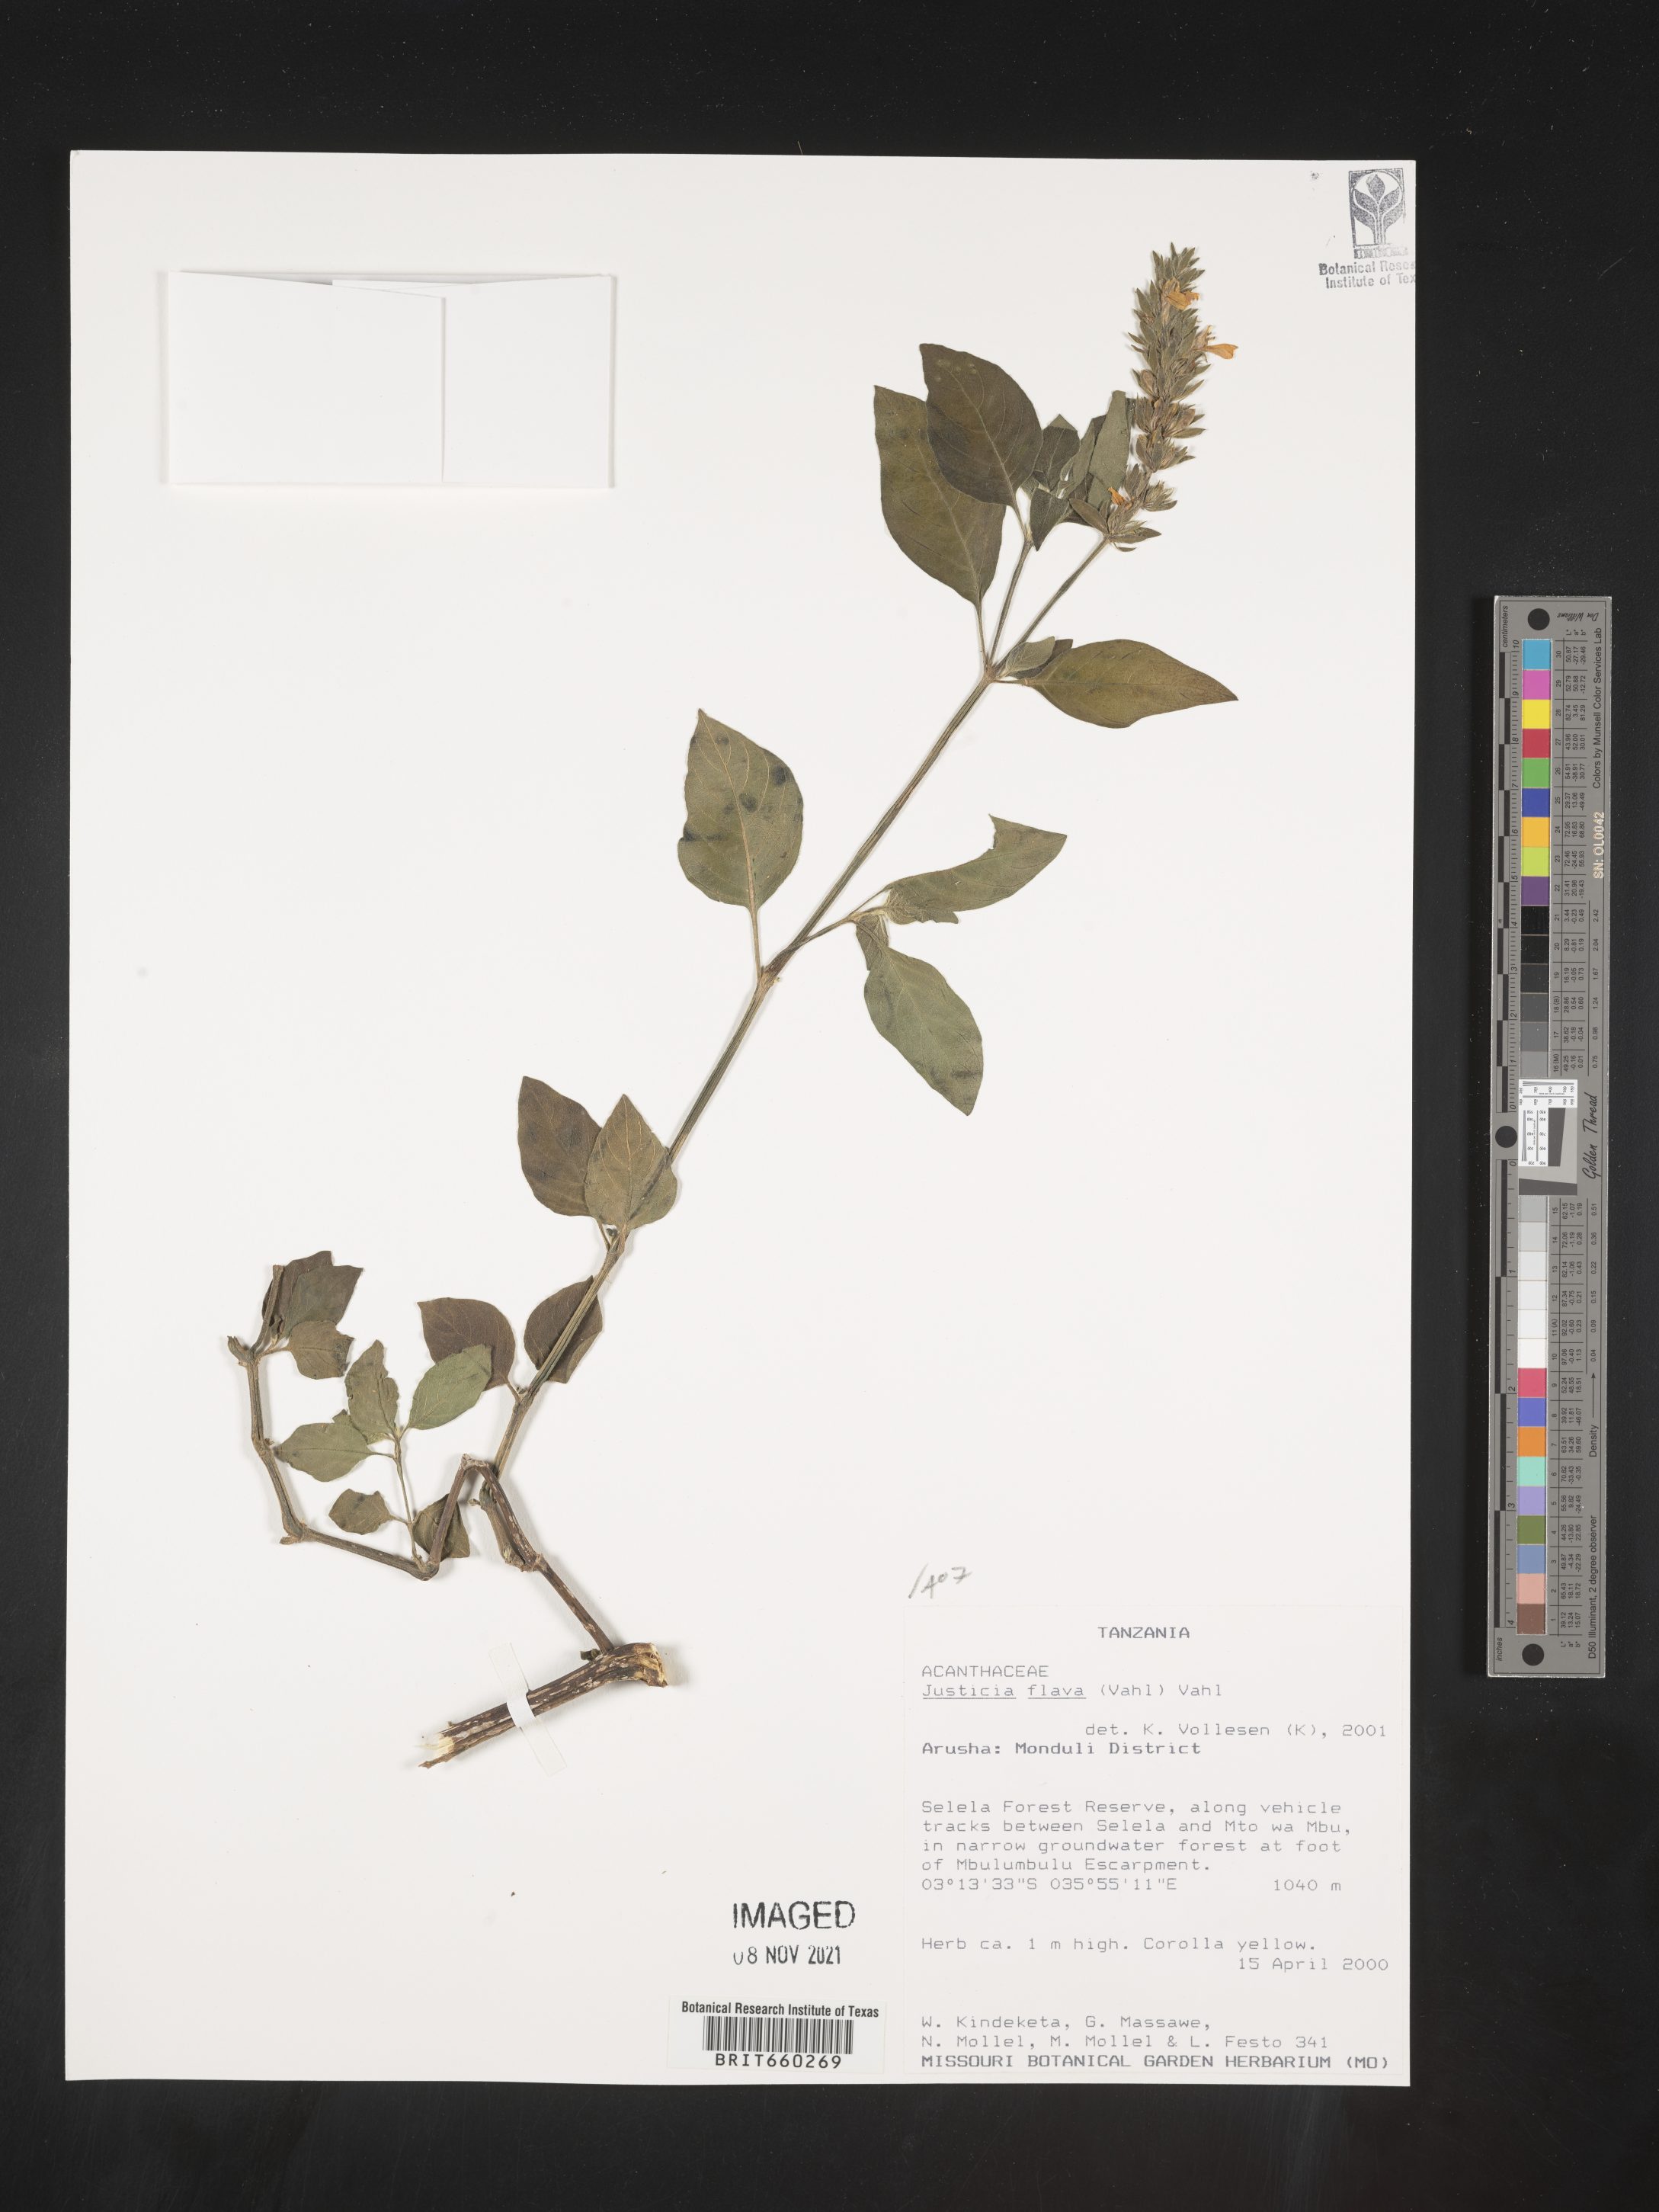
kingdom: Plantae
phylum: Tracheophyta
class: Magnoliopsida
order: Lamiales
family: Acanthaceae
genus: Justicia
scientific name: Justicia flava
